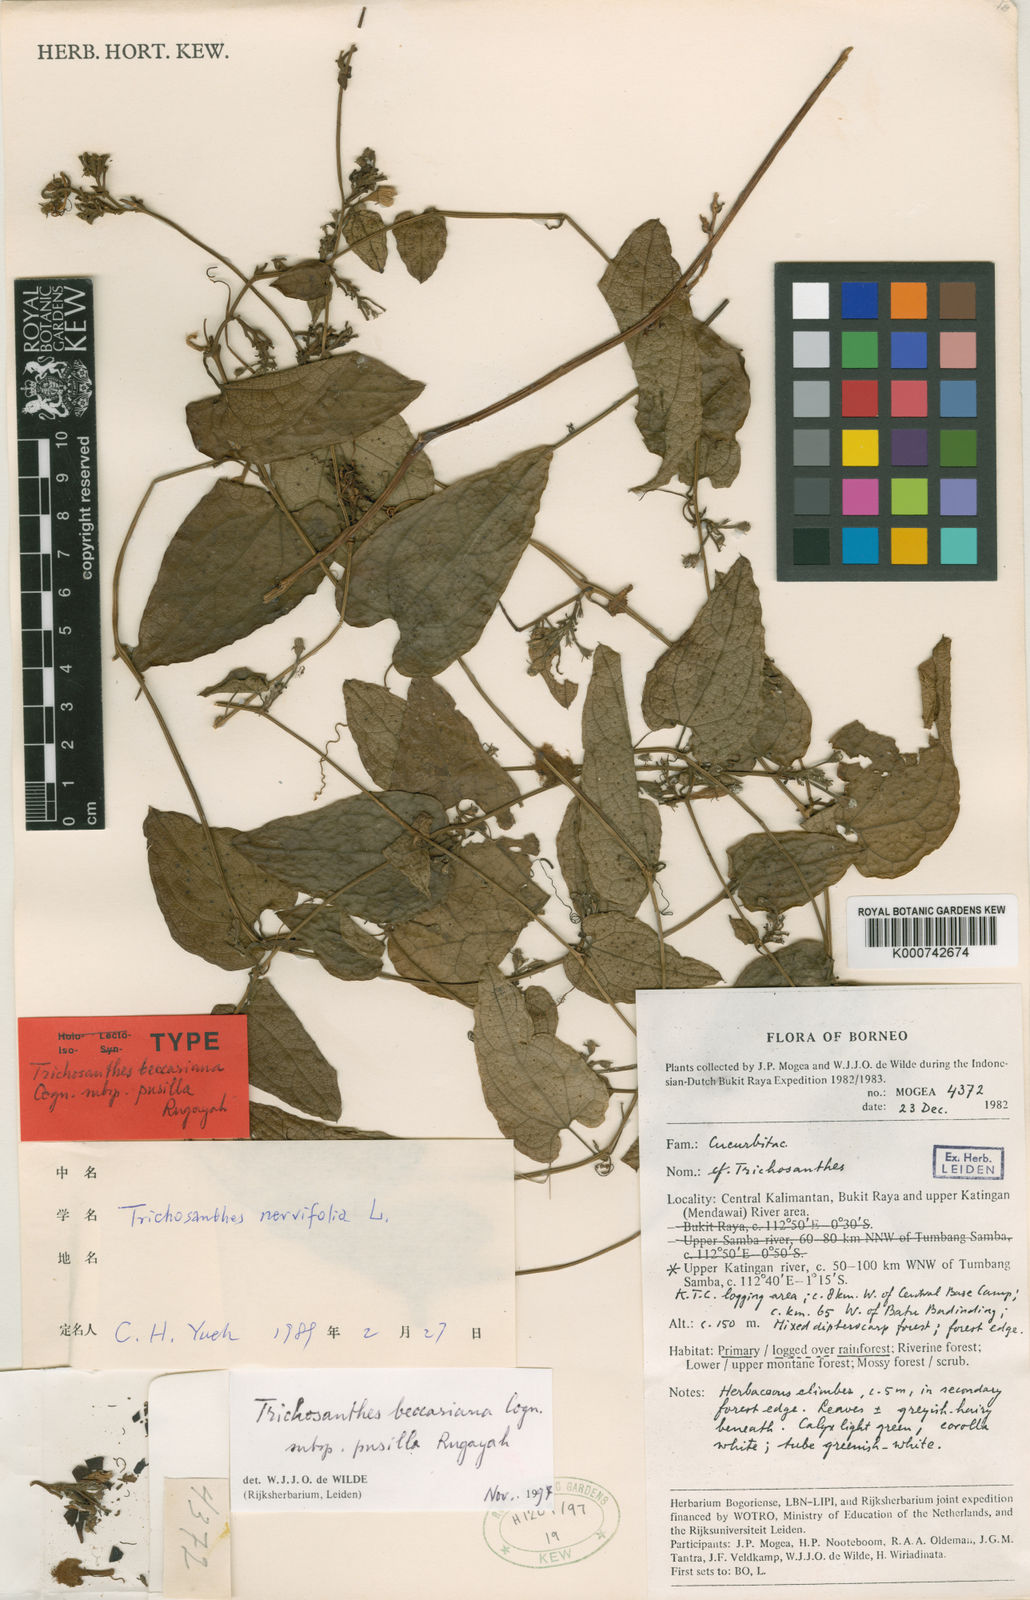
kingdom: Plantae
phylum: Tracheophyta
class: Magnoliopsida
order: Cucurbitales
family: Cucurbitaceae
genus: Trichosanthes
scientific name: Trichosanthes beccariana
